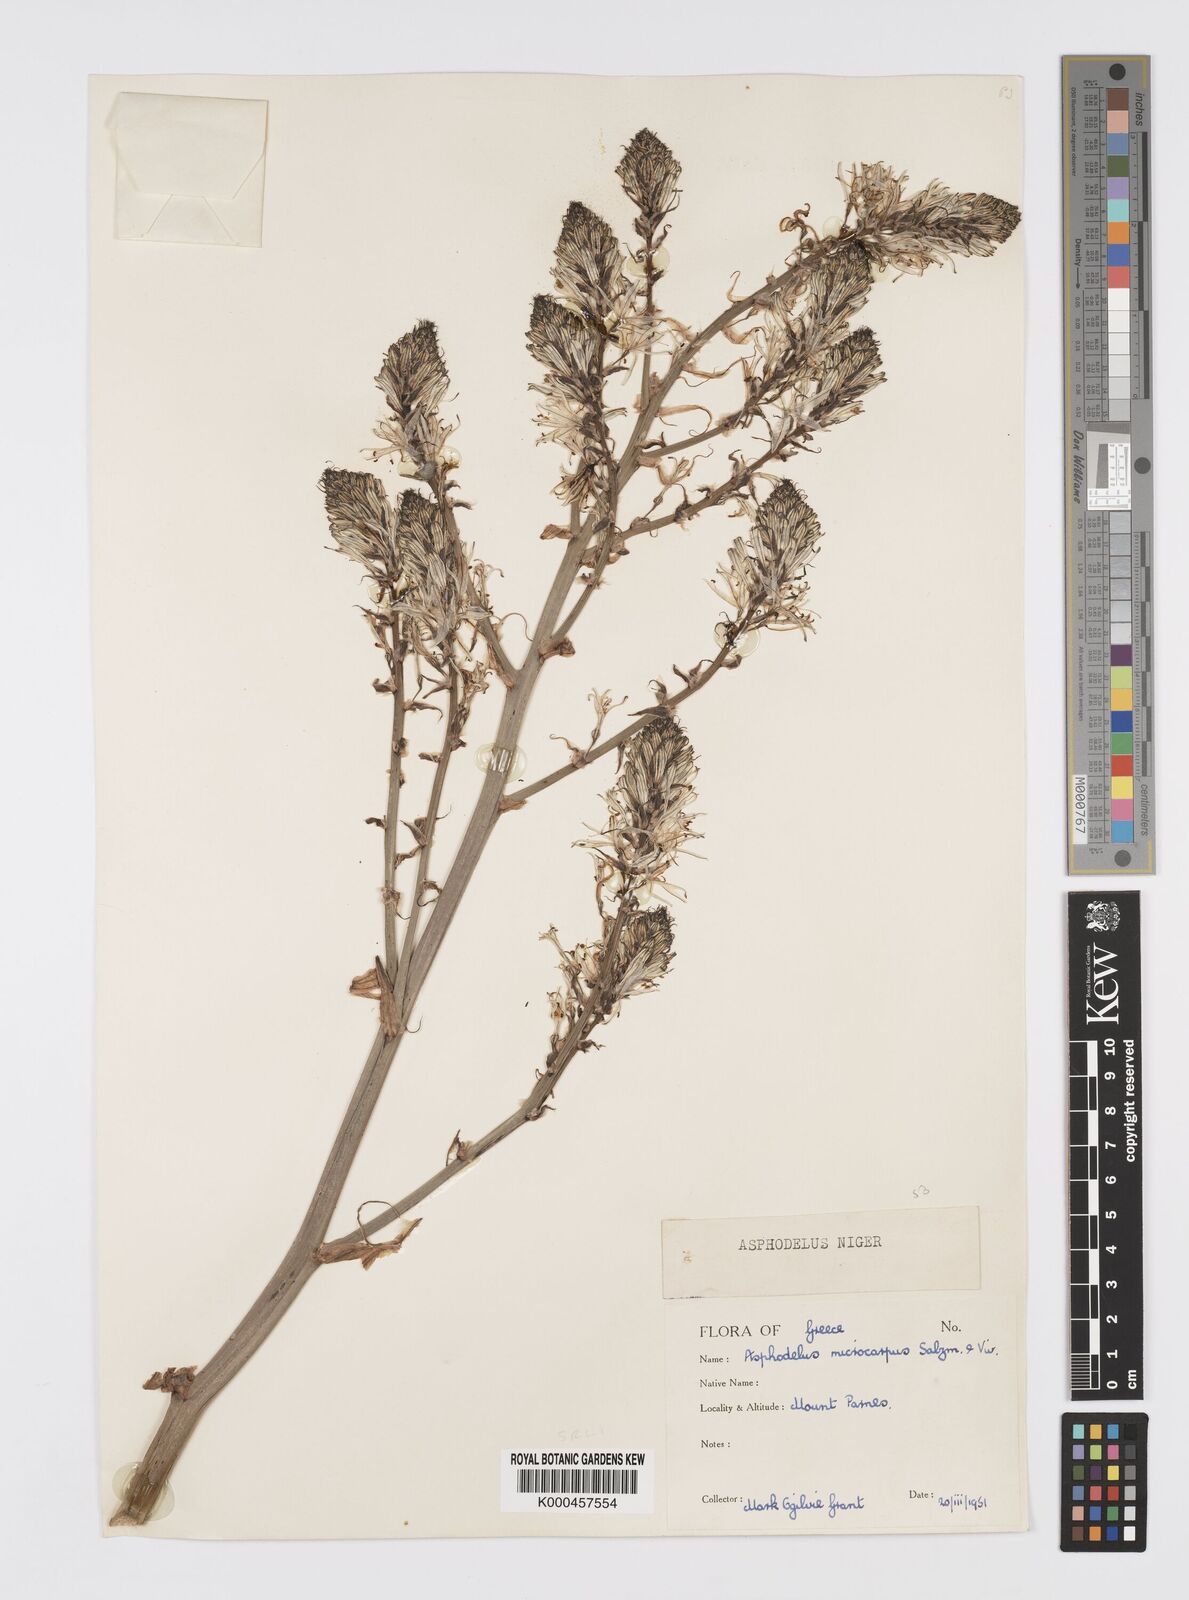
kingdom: Plantae
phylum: Tracheophyta
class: Liliopsida
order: Asparagales
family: Asphodelaceae
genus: Asphodelus
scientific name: Asphodelus aestivus
